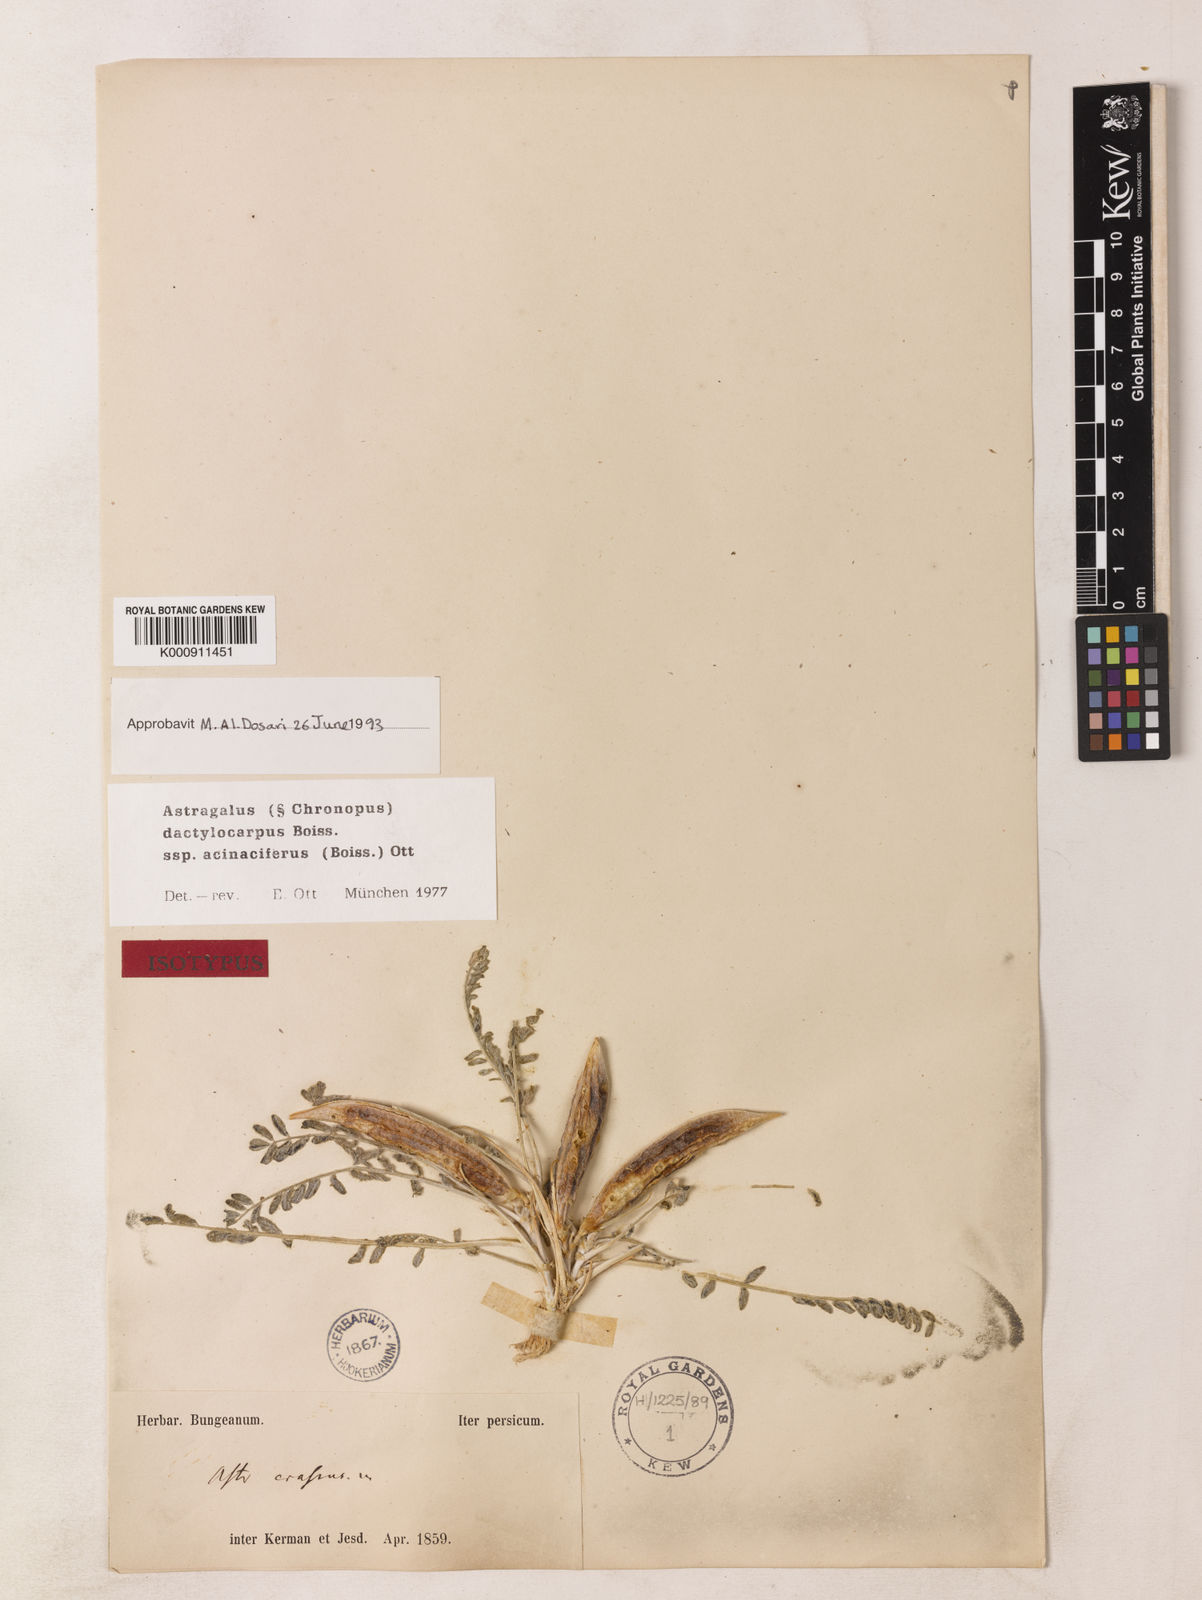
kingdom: Plantae
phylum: Tracheophyta
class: Magnoliopsida
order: Fabales
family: Fabaceae
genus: Astragalus
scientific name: Astragalus dactylocarpus
